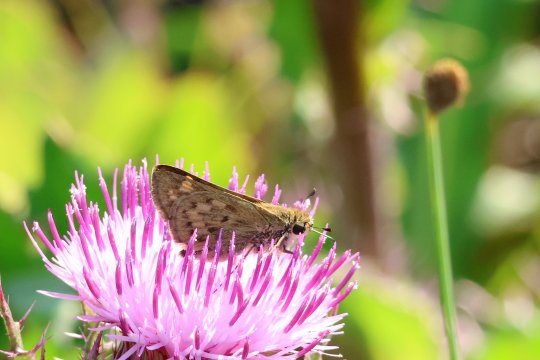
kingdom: Animalia
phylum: Arthropoda
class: Insecta
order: Lepidoptera
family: Hesperiidae
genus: Hylephila
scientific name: Hylephila phyleus
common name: Fiery Skipper
